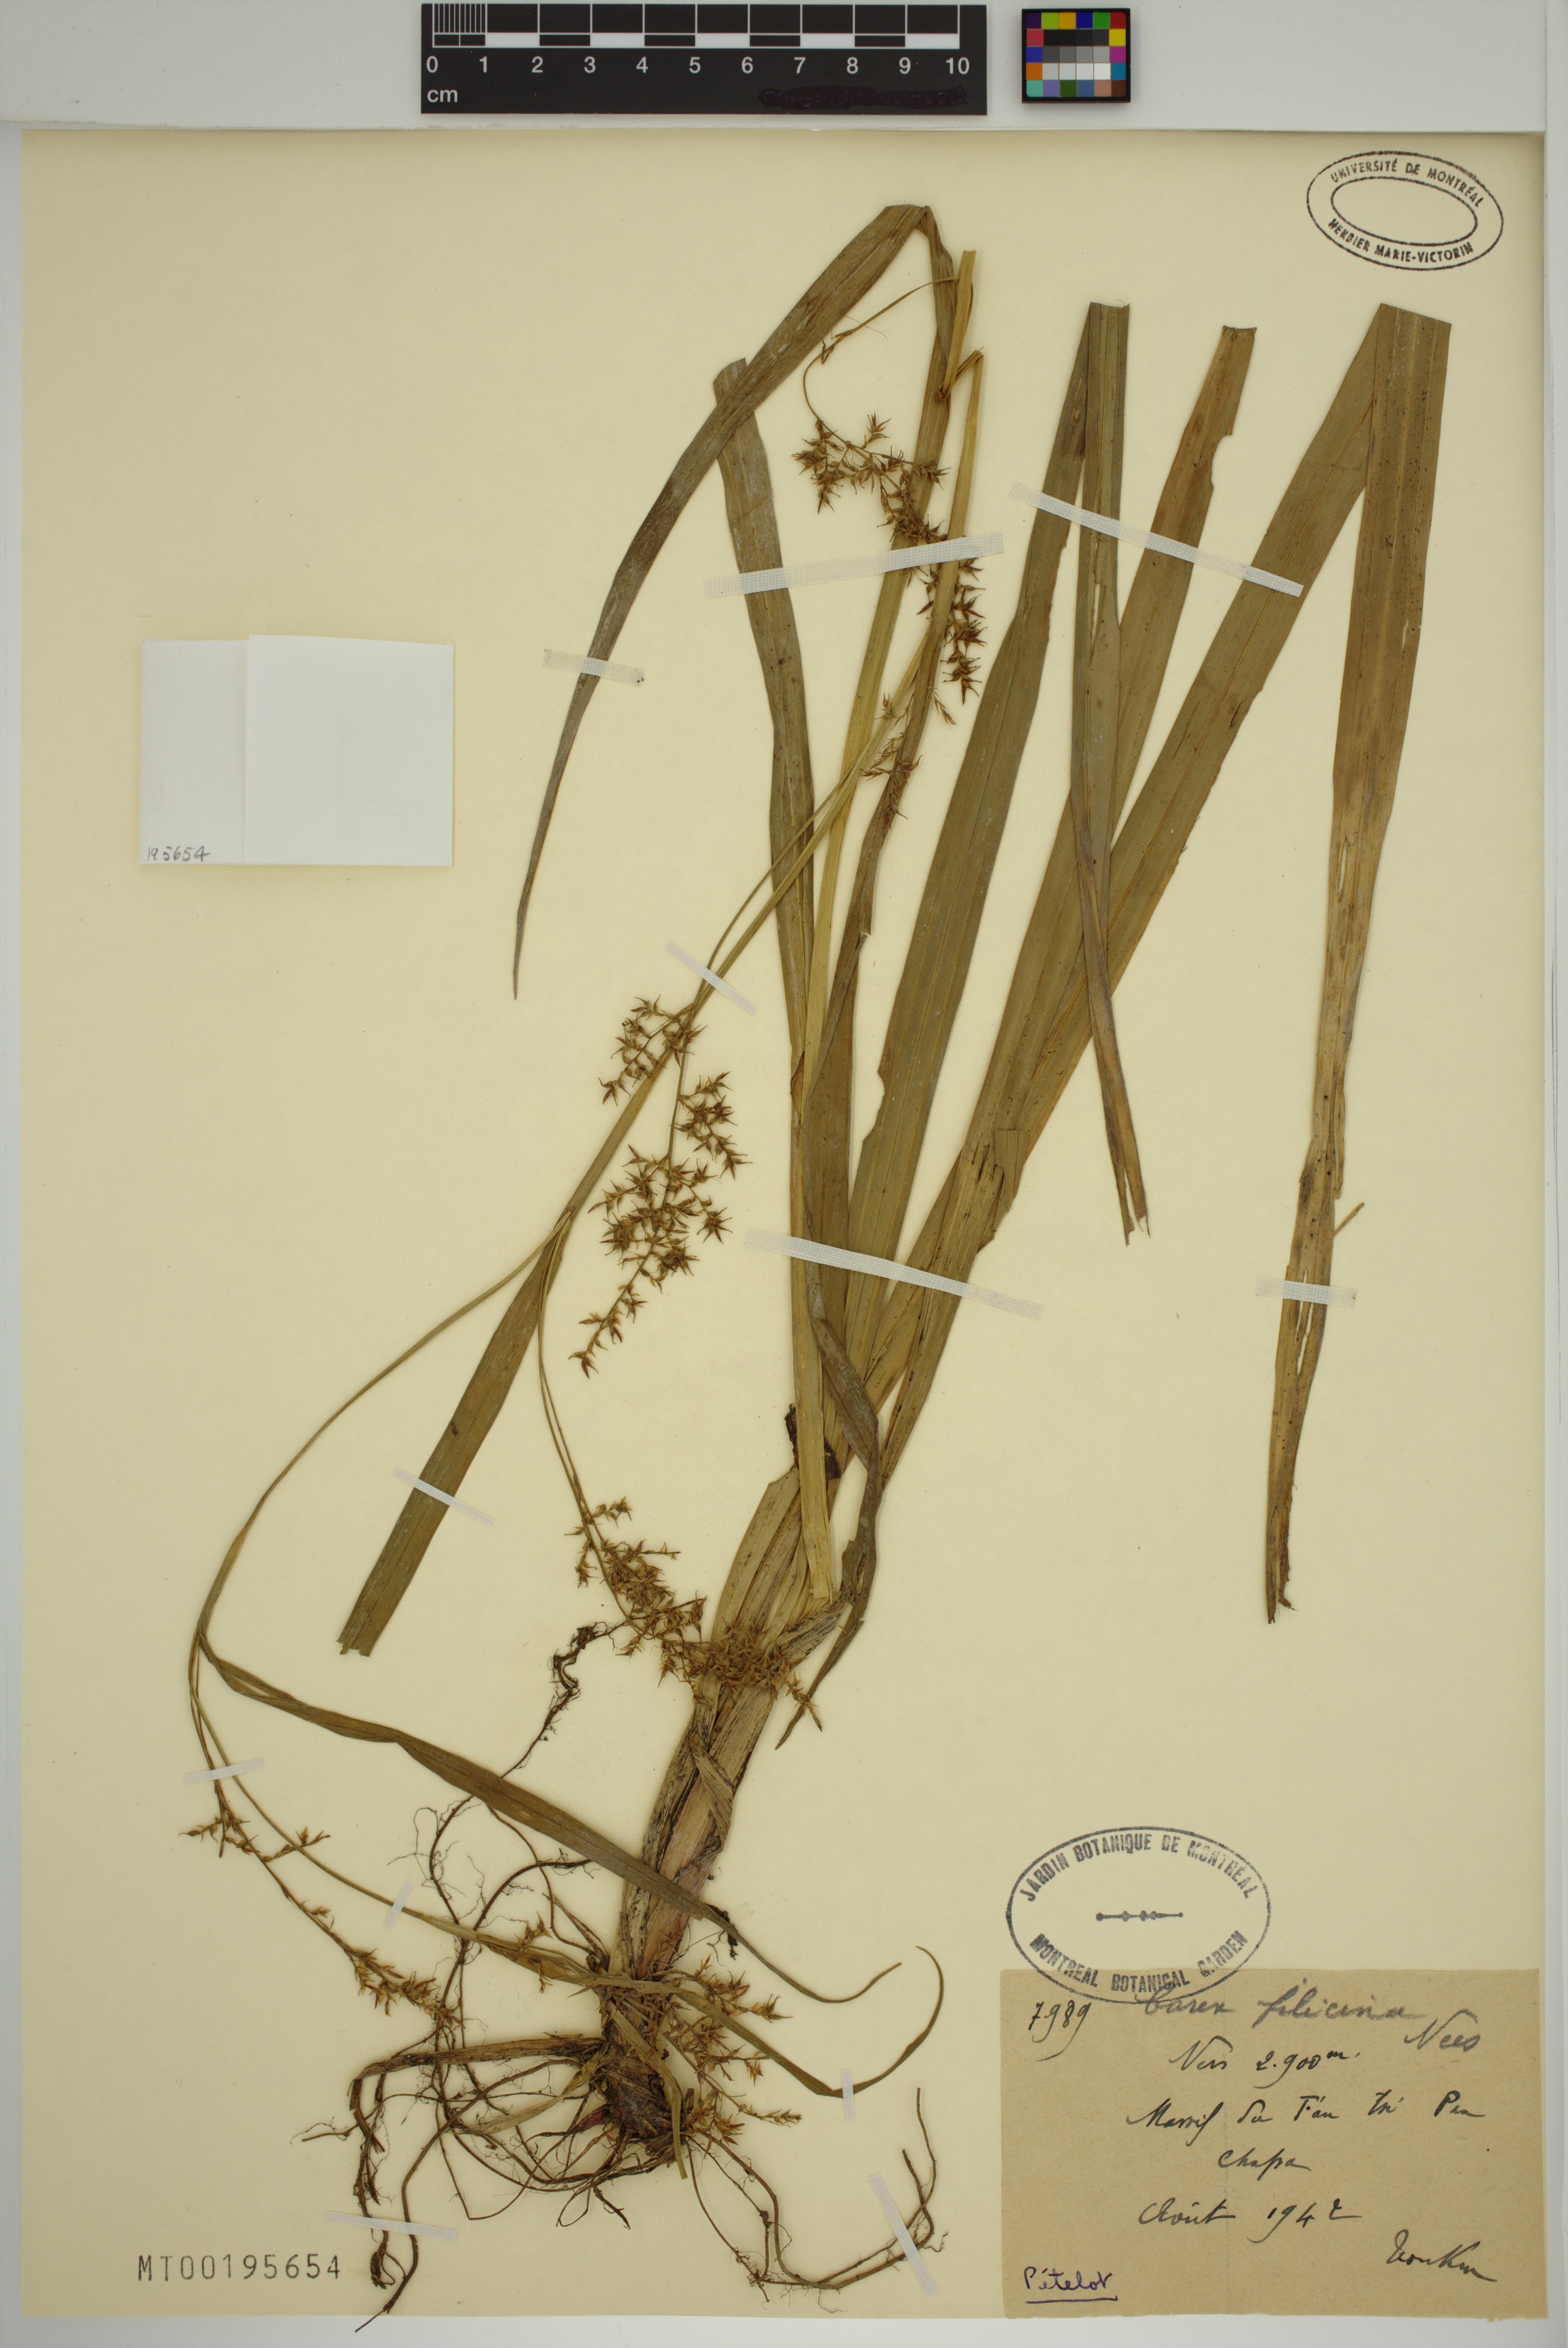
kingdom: Plantae
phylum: Tracheophyta
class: Liliopsida
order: Poales
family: Cyperaceae
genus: Carex
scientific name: Carex filicina
